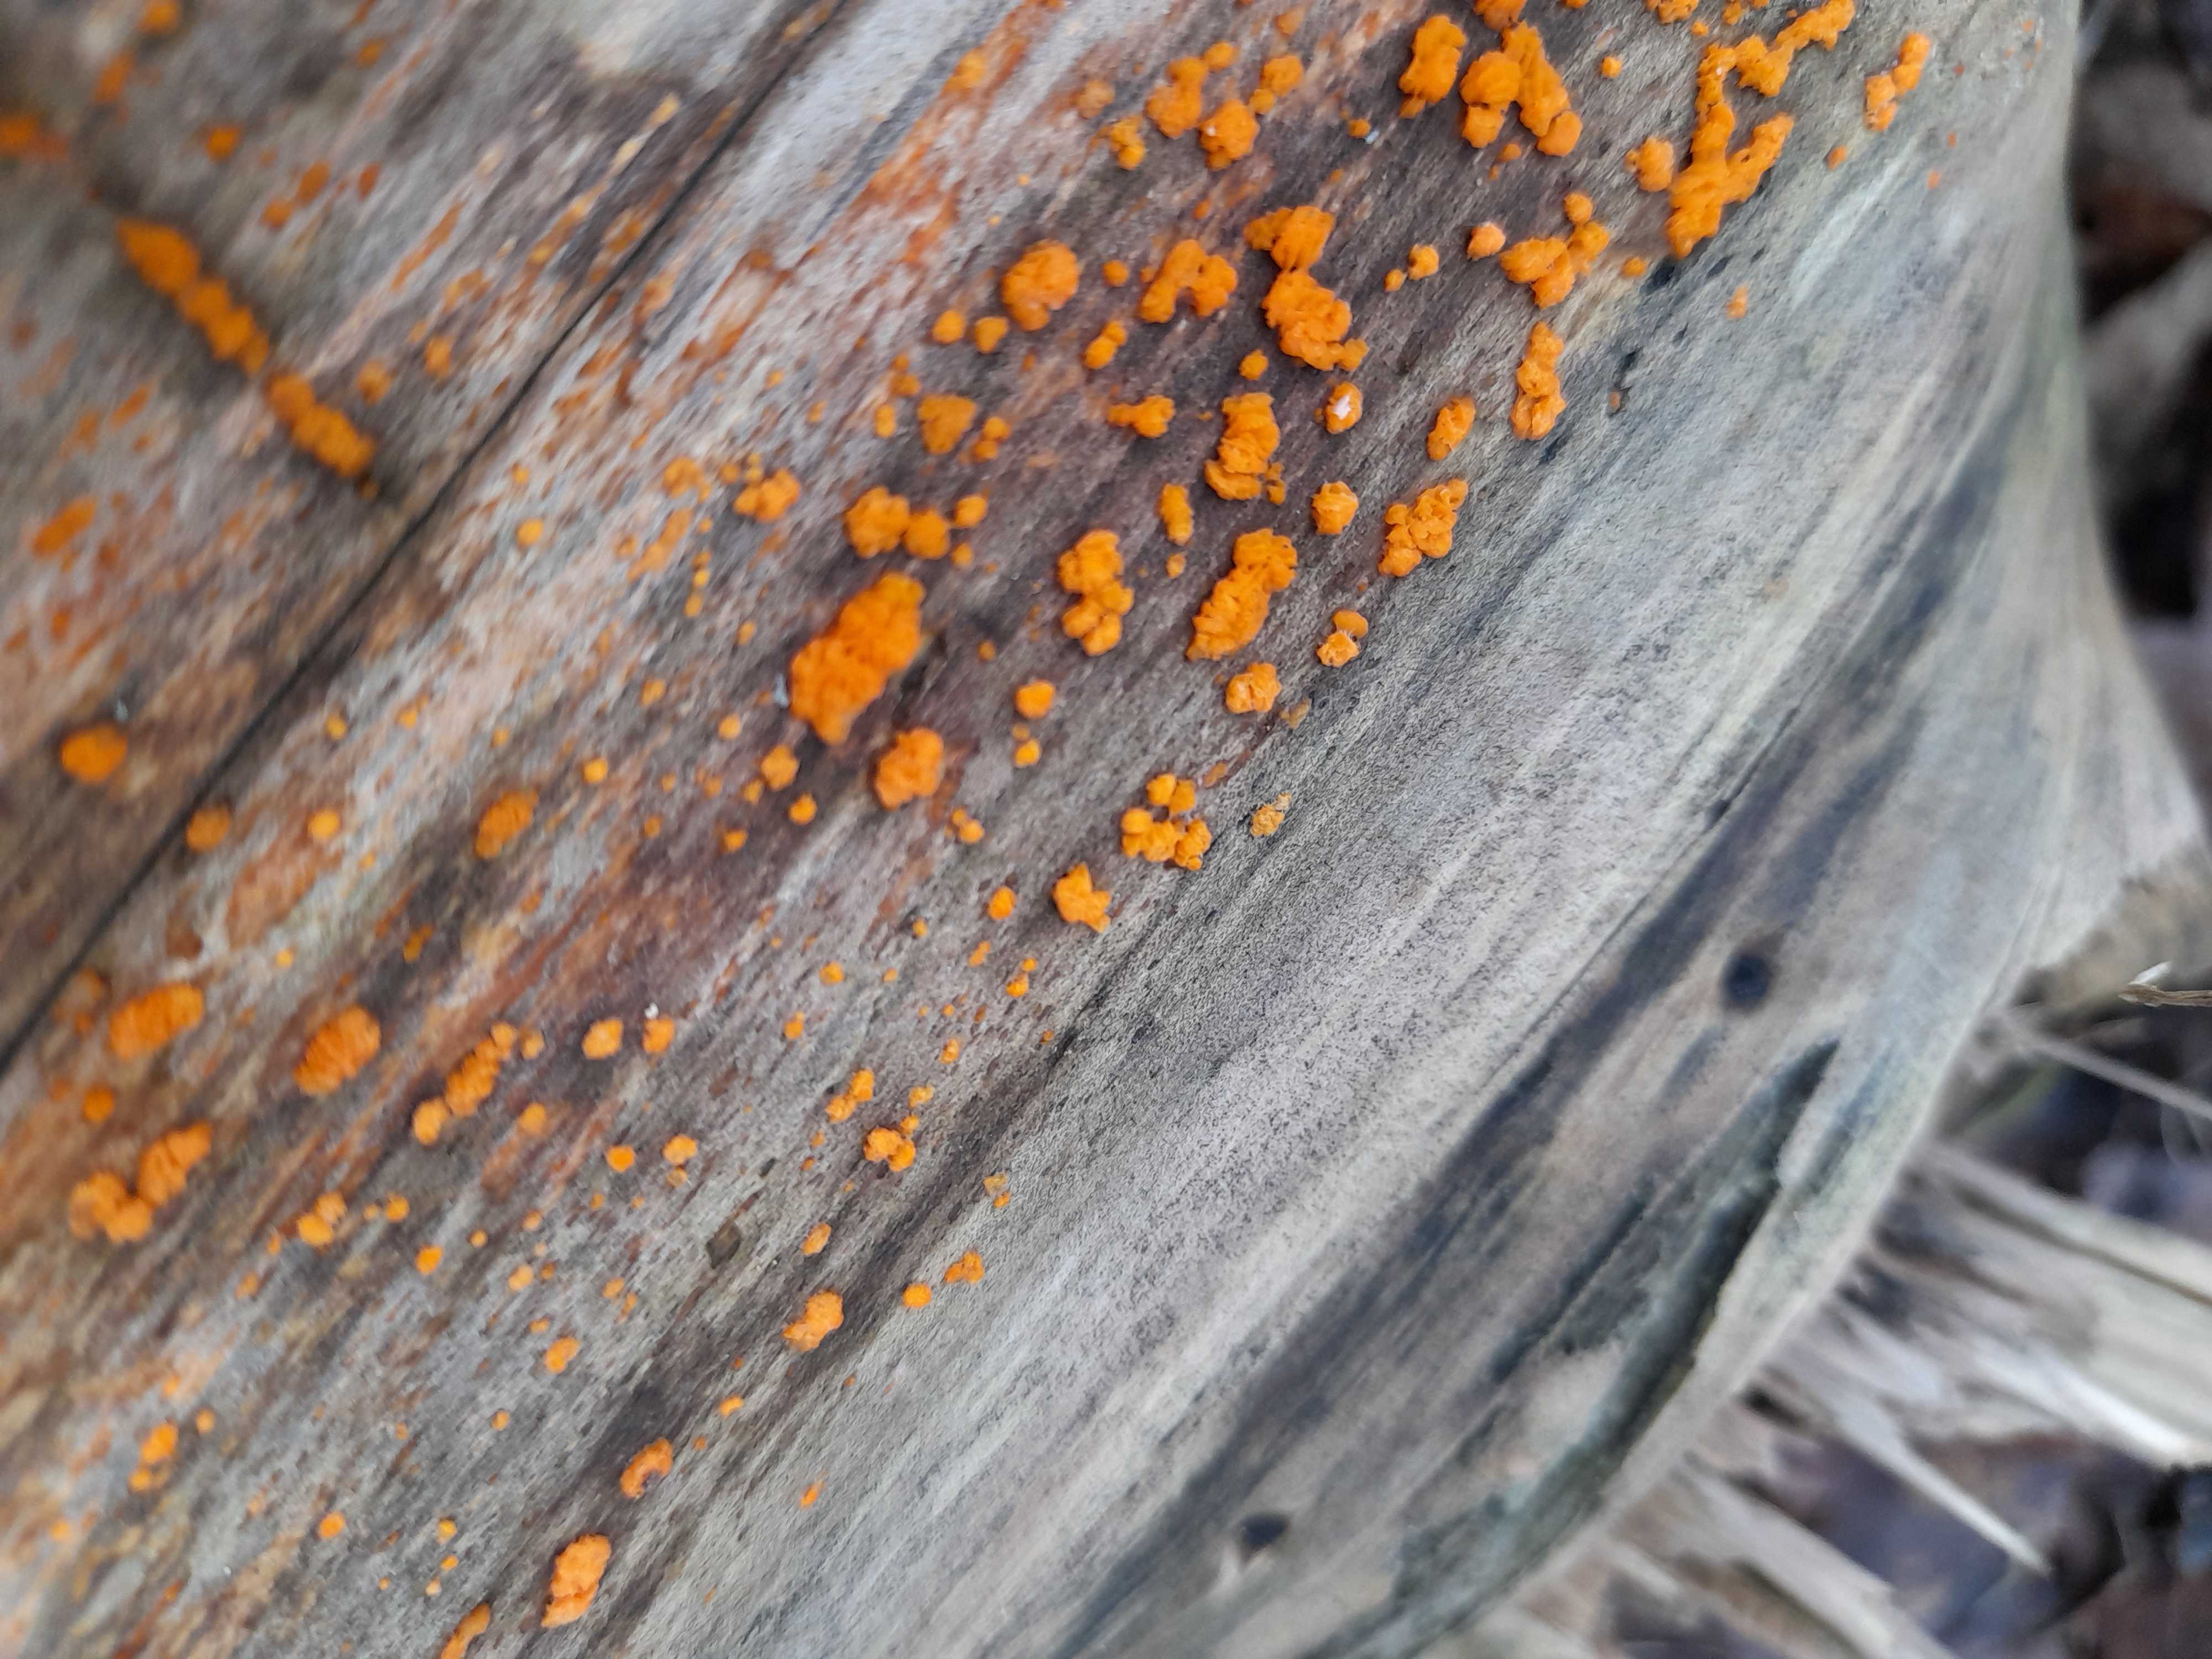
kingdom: Fungi
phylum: Basidiomycota
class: Dacrymycetes
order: Dacrymycetales
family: Dacrymycetaceae
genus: Dacrymyces
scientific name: Dacrymyces stillatus
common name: almindelig tåresvamp
